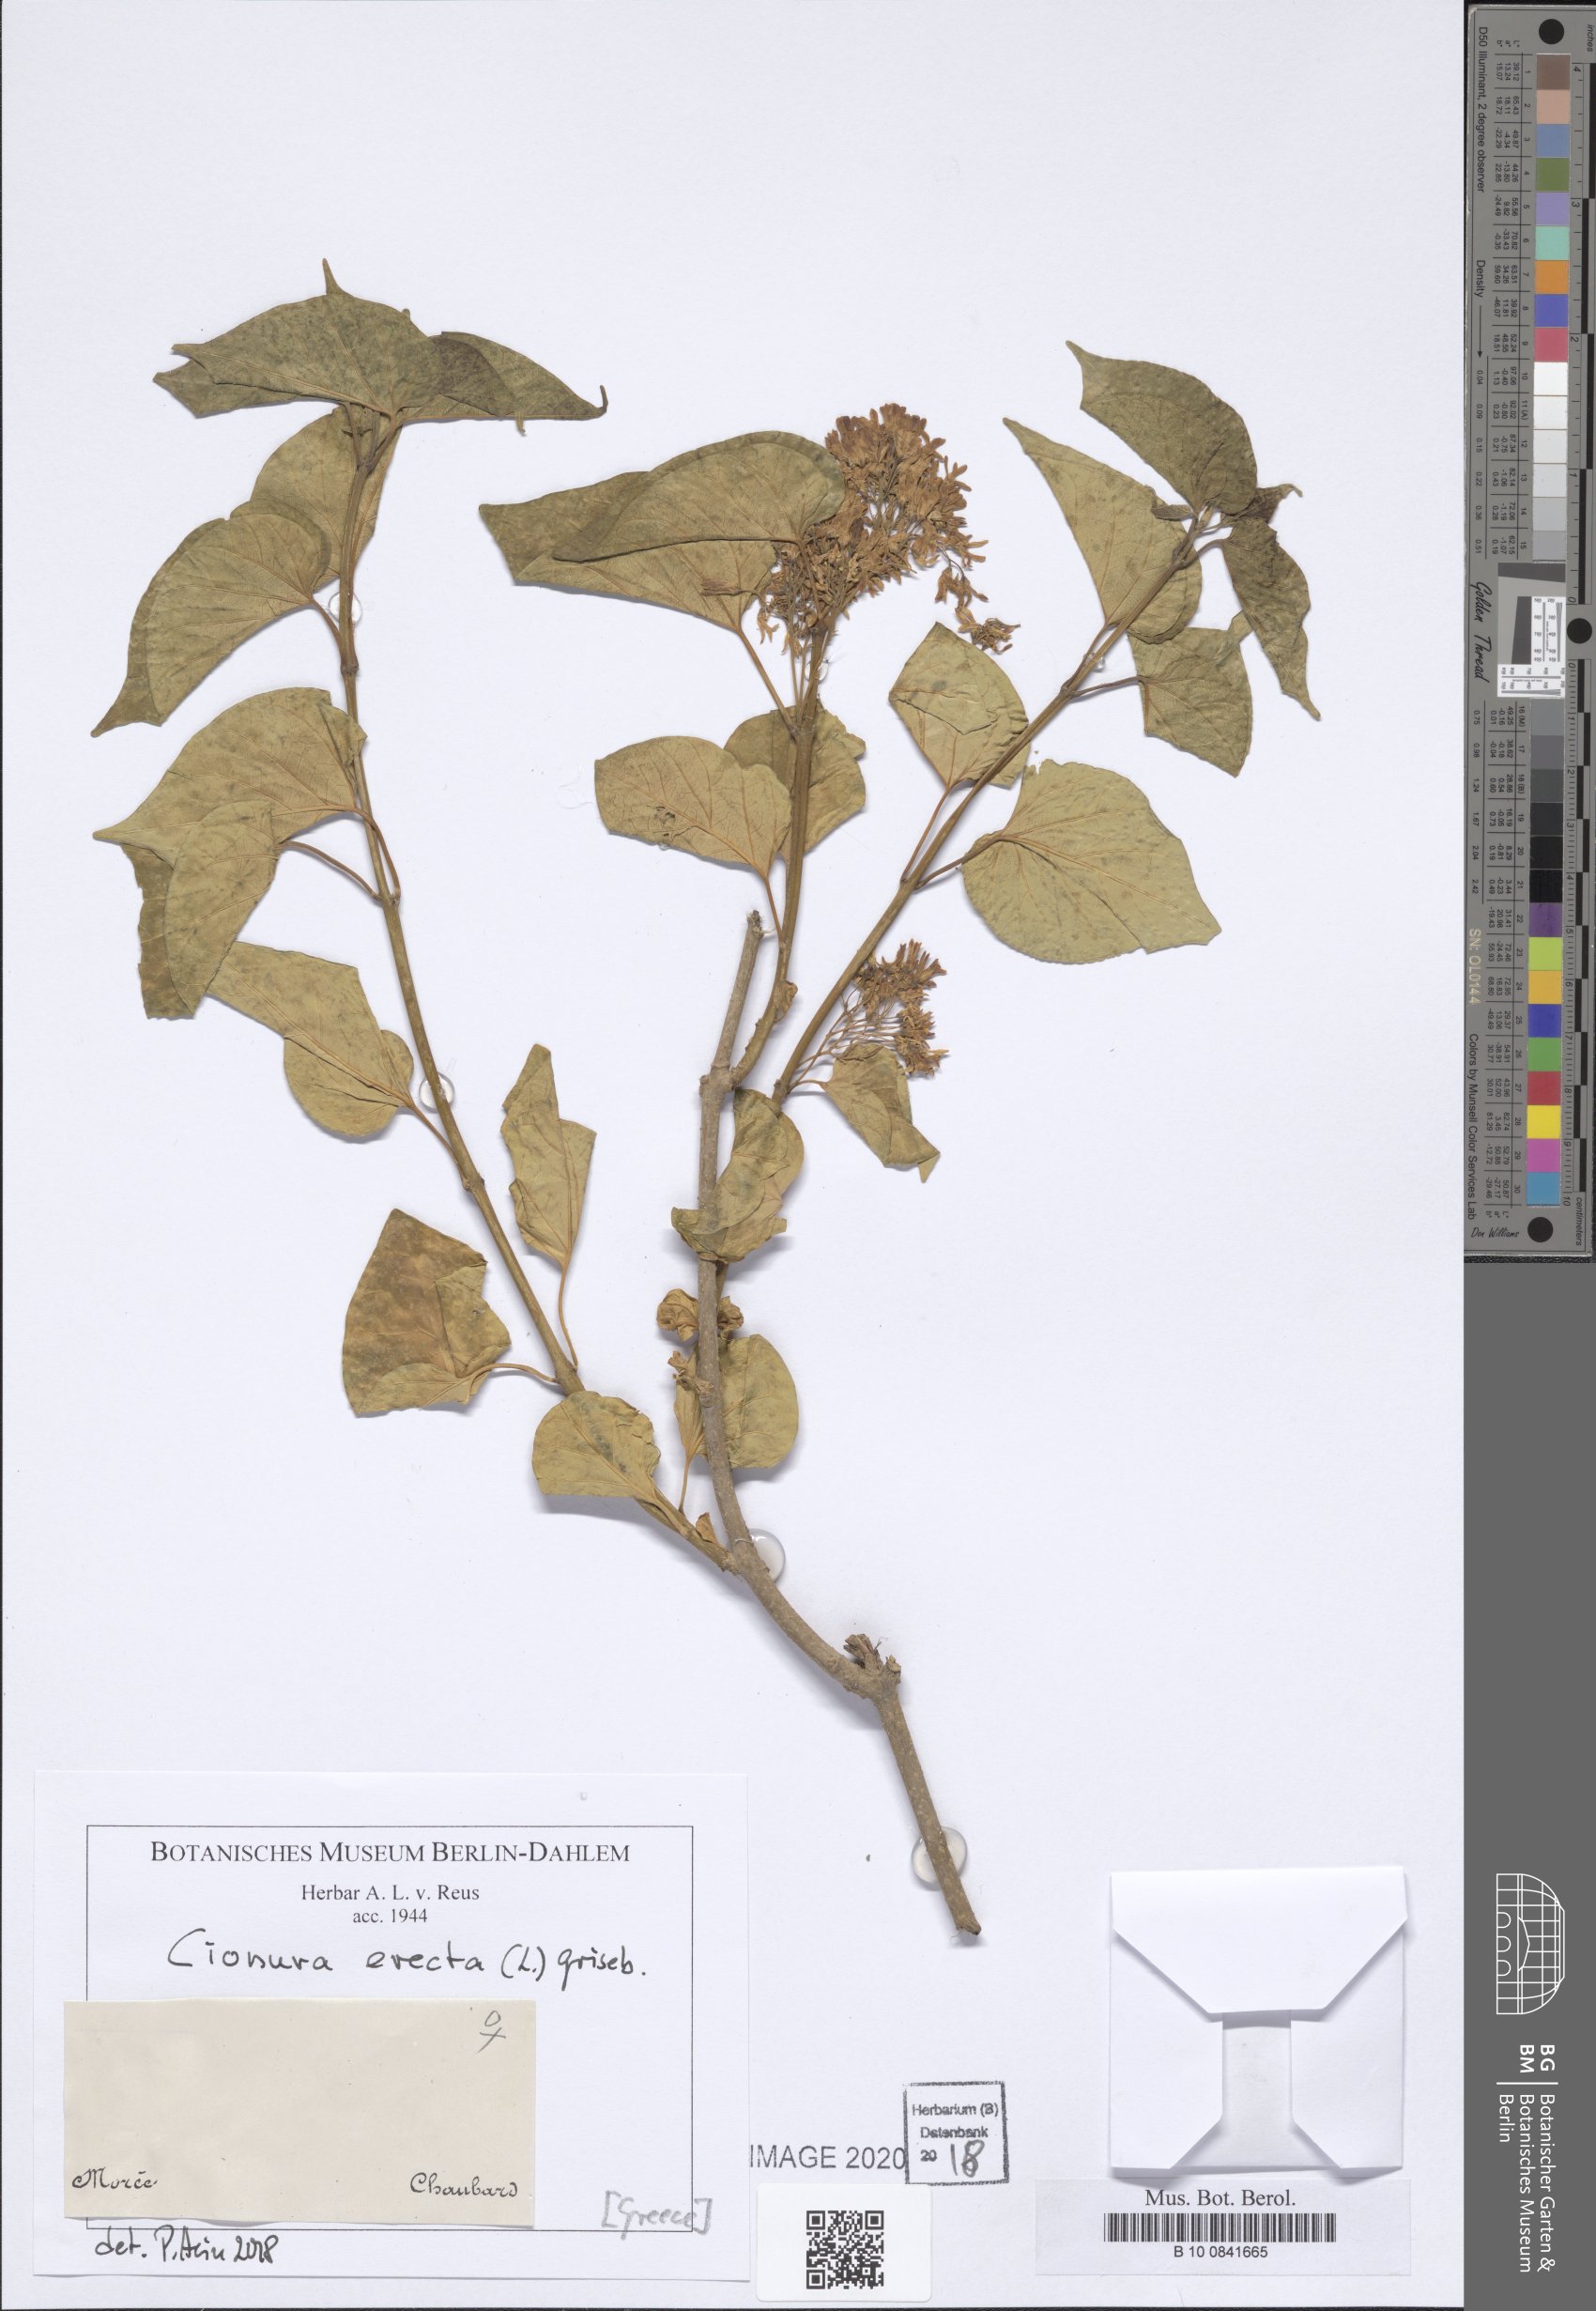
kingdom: Plantae
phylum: Tracheophyta
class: Magnoliopsida
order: Gentianales
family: Apocynaceae
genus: Cionura
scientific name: Cionura erecta
